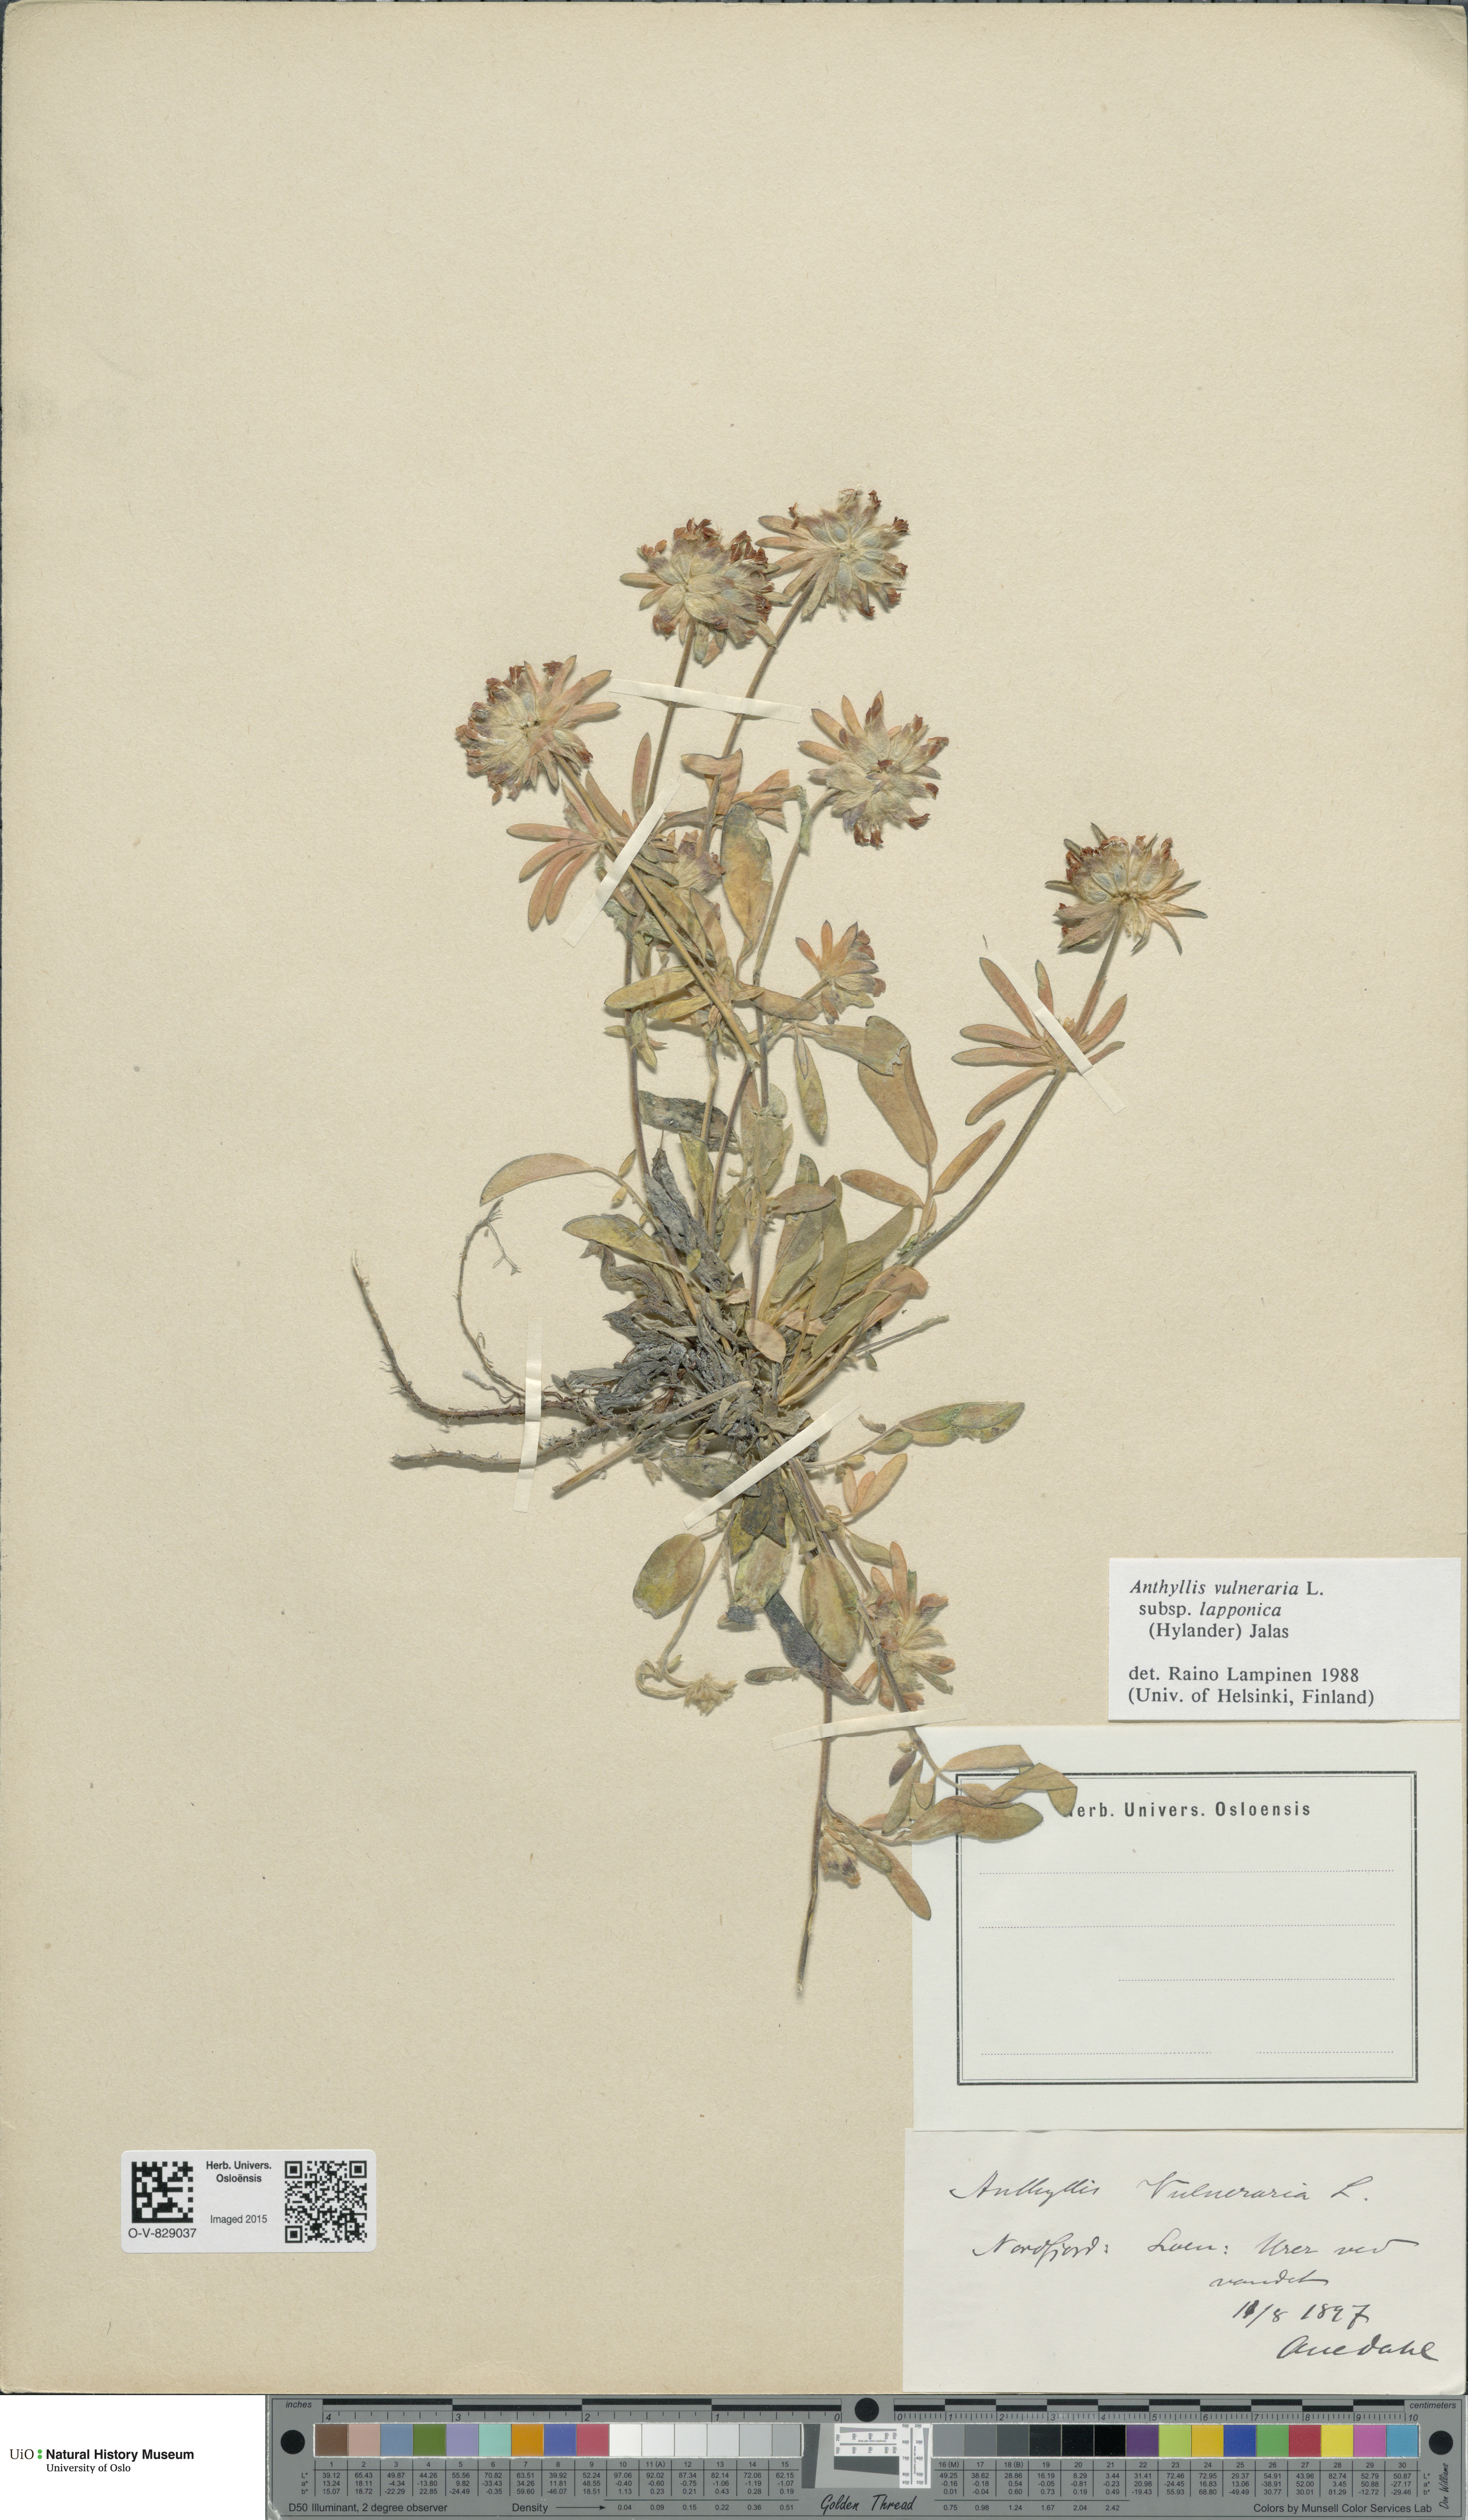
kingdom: Plantae
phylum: Tracheophyta
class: Magnoliopsida
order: Fabales
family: Fabaceae
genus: Anthyllis
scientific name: Anthyllis vulneraria
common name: Kidney vetch
